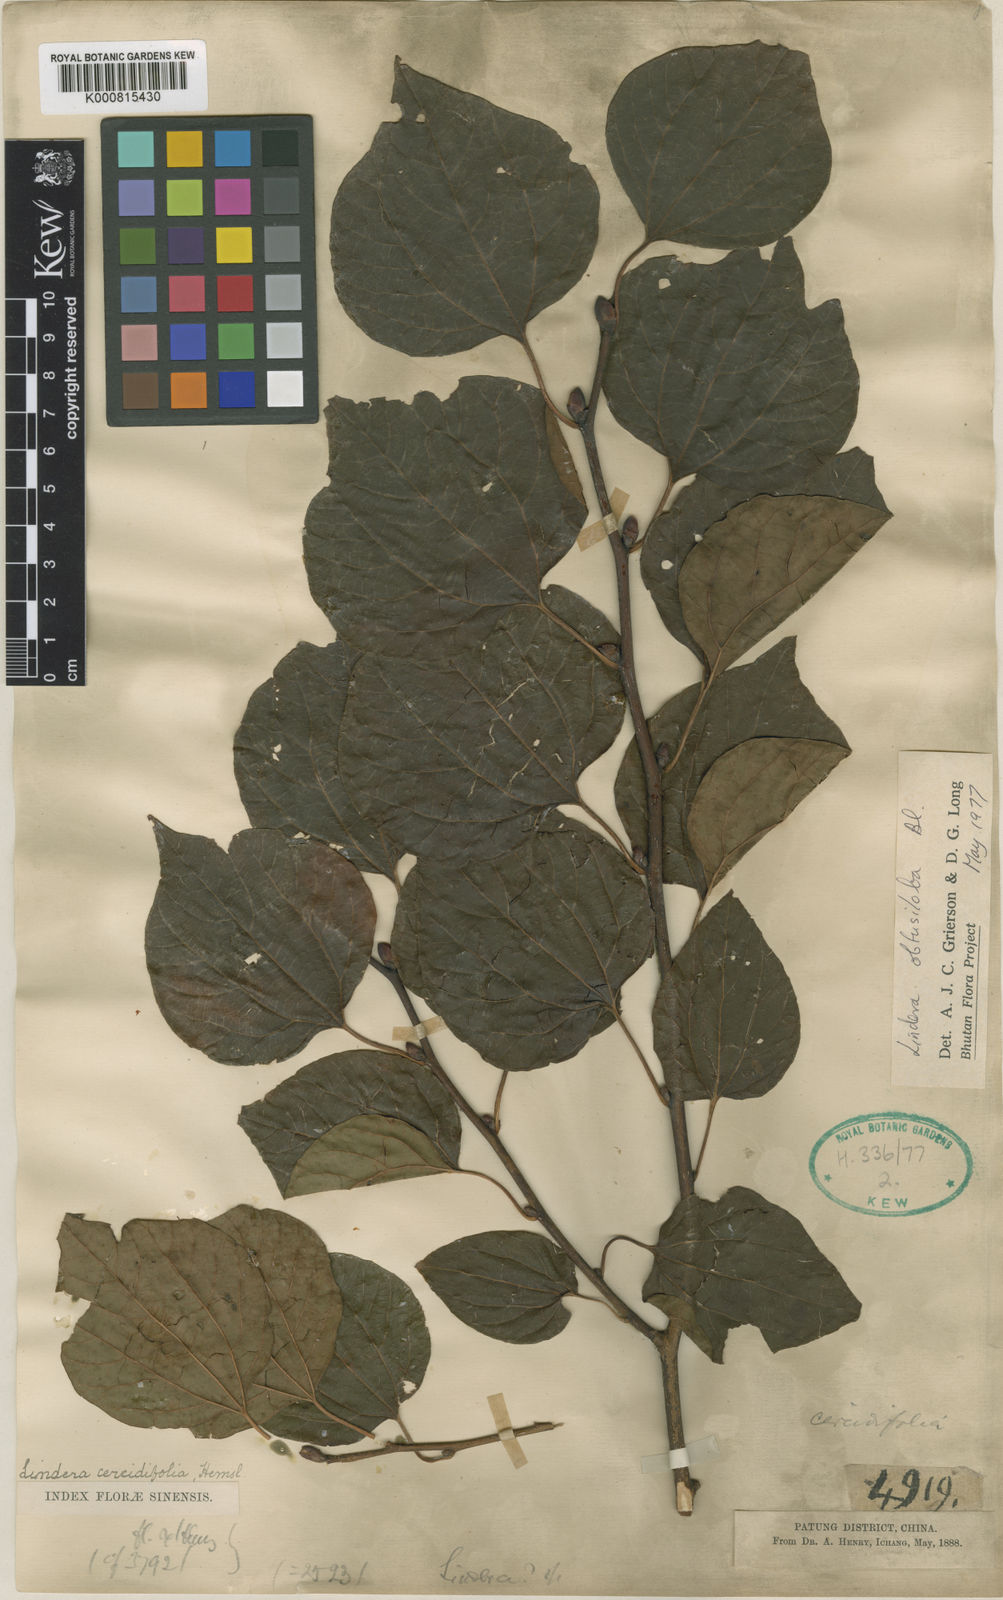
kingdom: Plantae
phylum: Tracheophyta
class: Magnoliopsida
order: Laurales
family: Lauraceae
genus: Lindera
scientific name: Lindera obtusiloba
